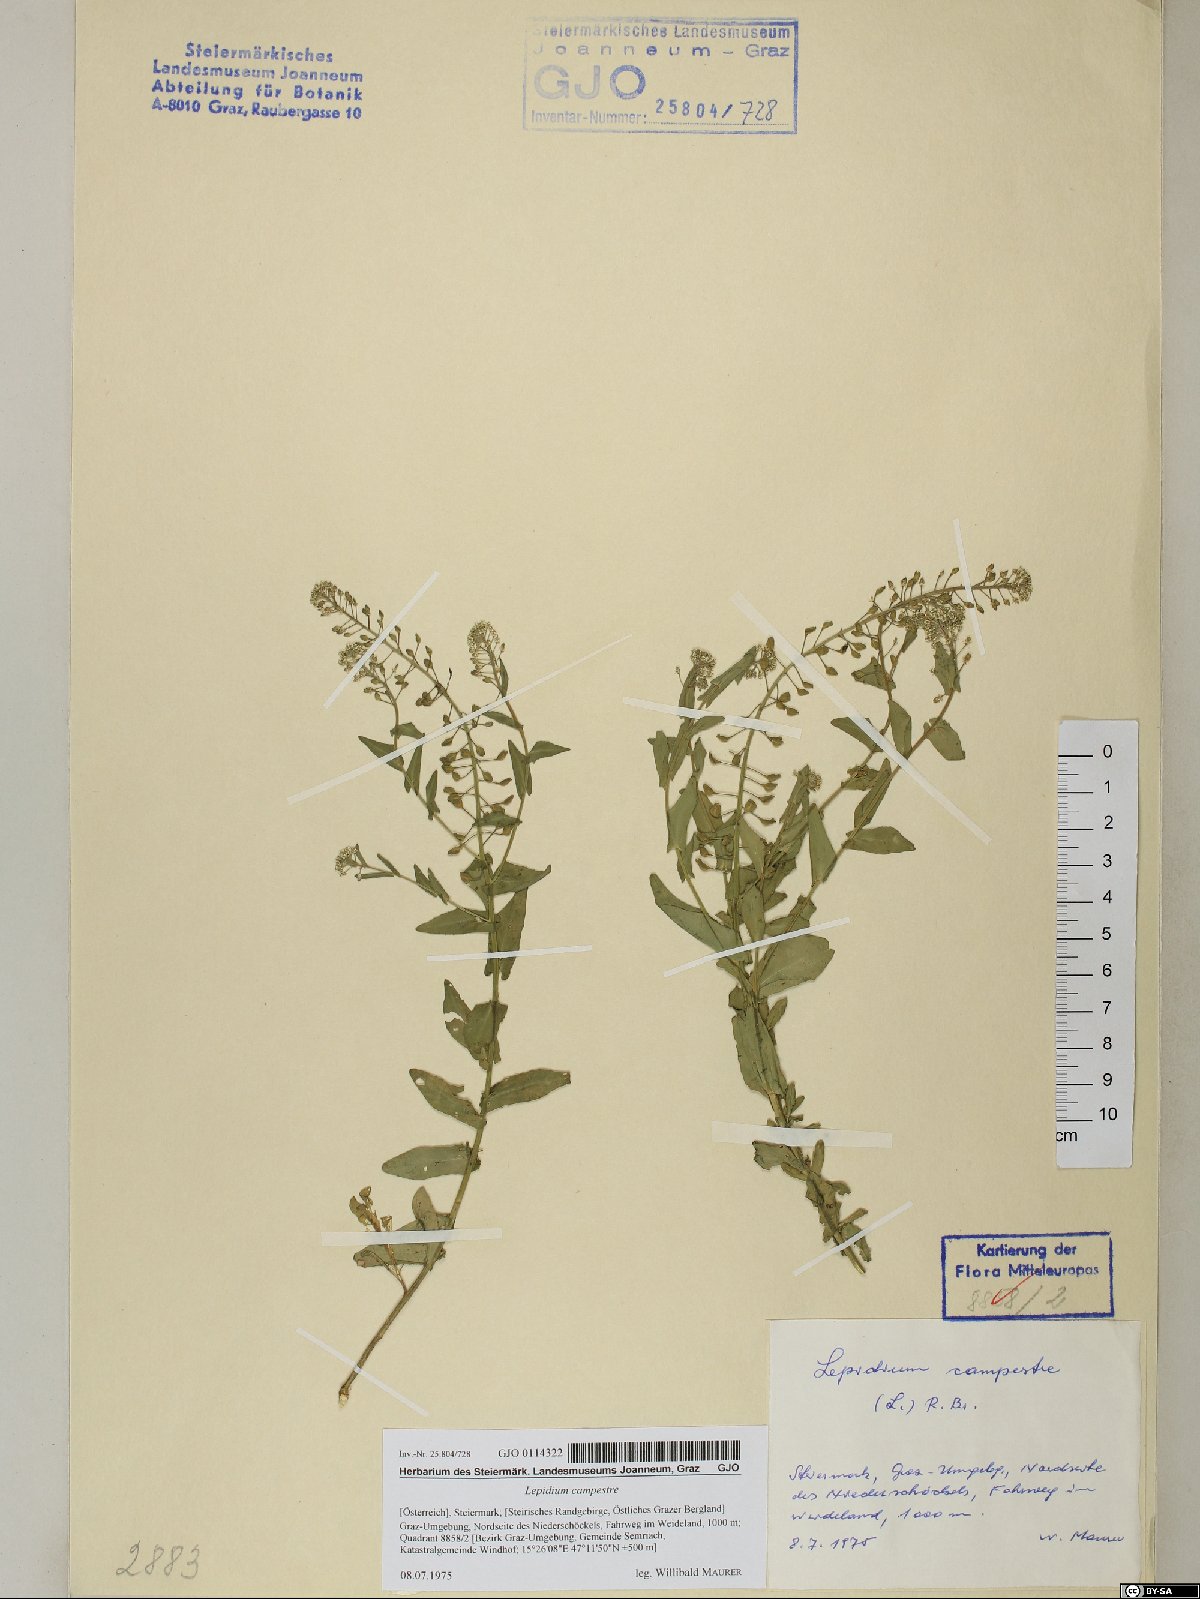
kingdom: Plantae
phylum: Tracheophyta
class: Magnoliopsida
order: Brassicales
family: Brassicaceae
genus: Lepidium
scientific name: Lepidium campestre
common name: Field pepperwort
